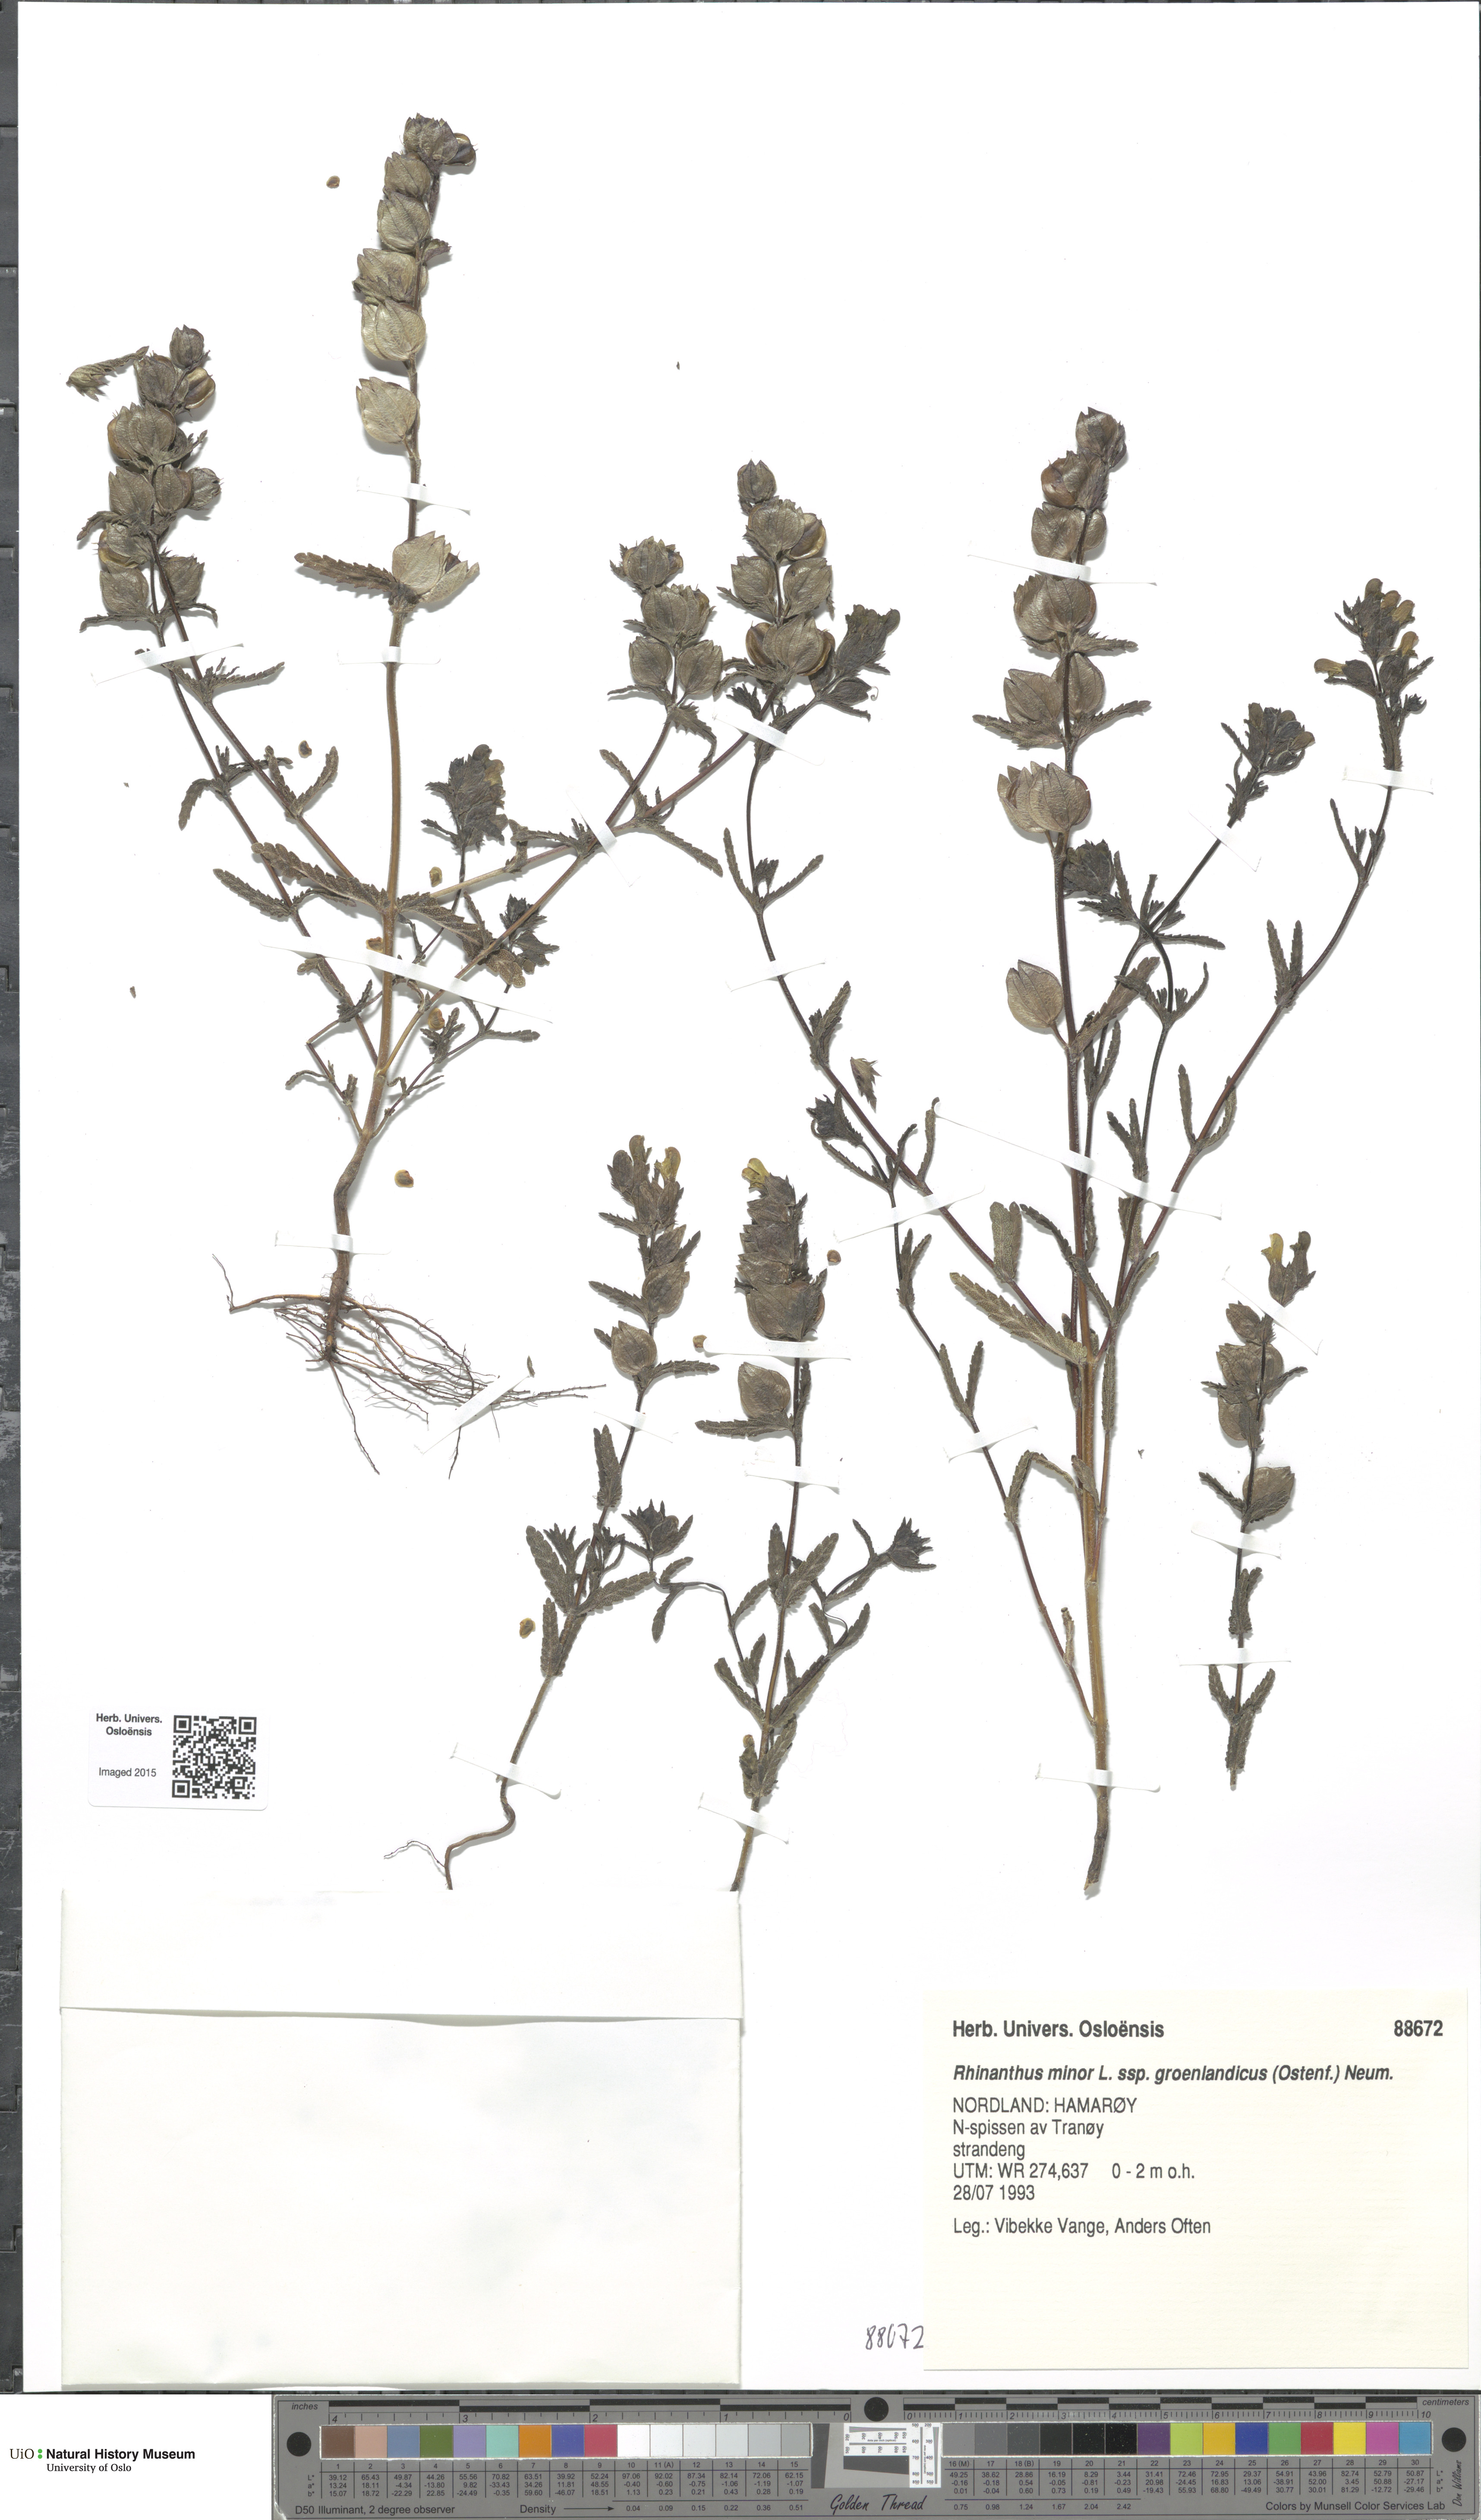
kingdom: Plantae
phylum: Tracheophyta
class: Magnoliopsida
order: Lamiales
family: Orobanchaceae
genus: Rhinanthus
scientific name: Rhinanthus groenlandicus
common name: Little yellow rattle
